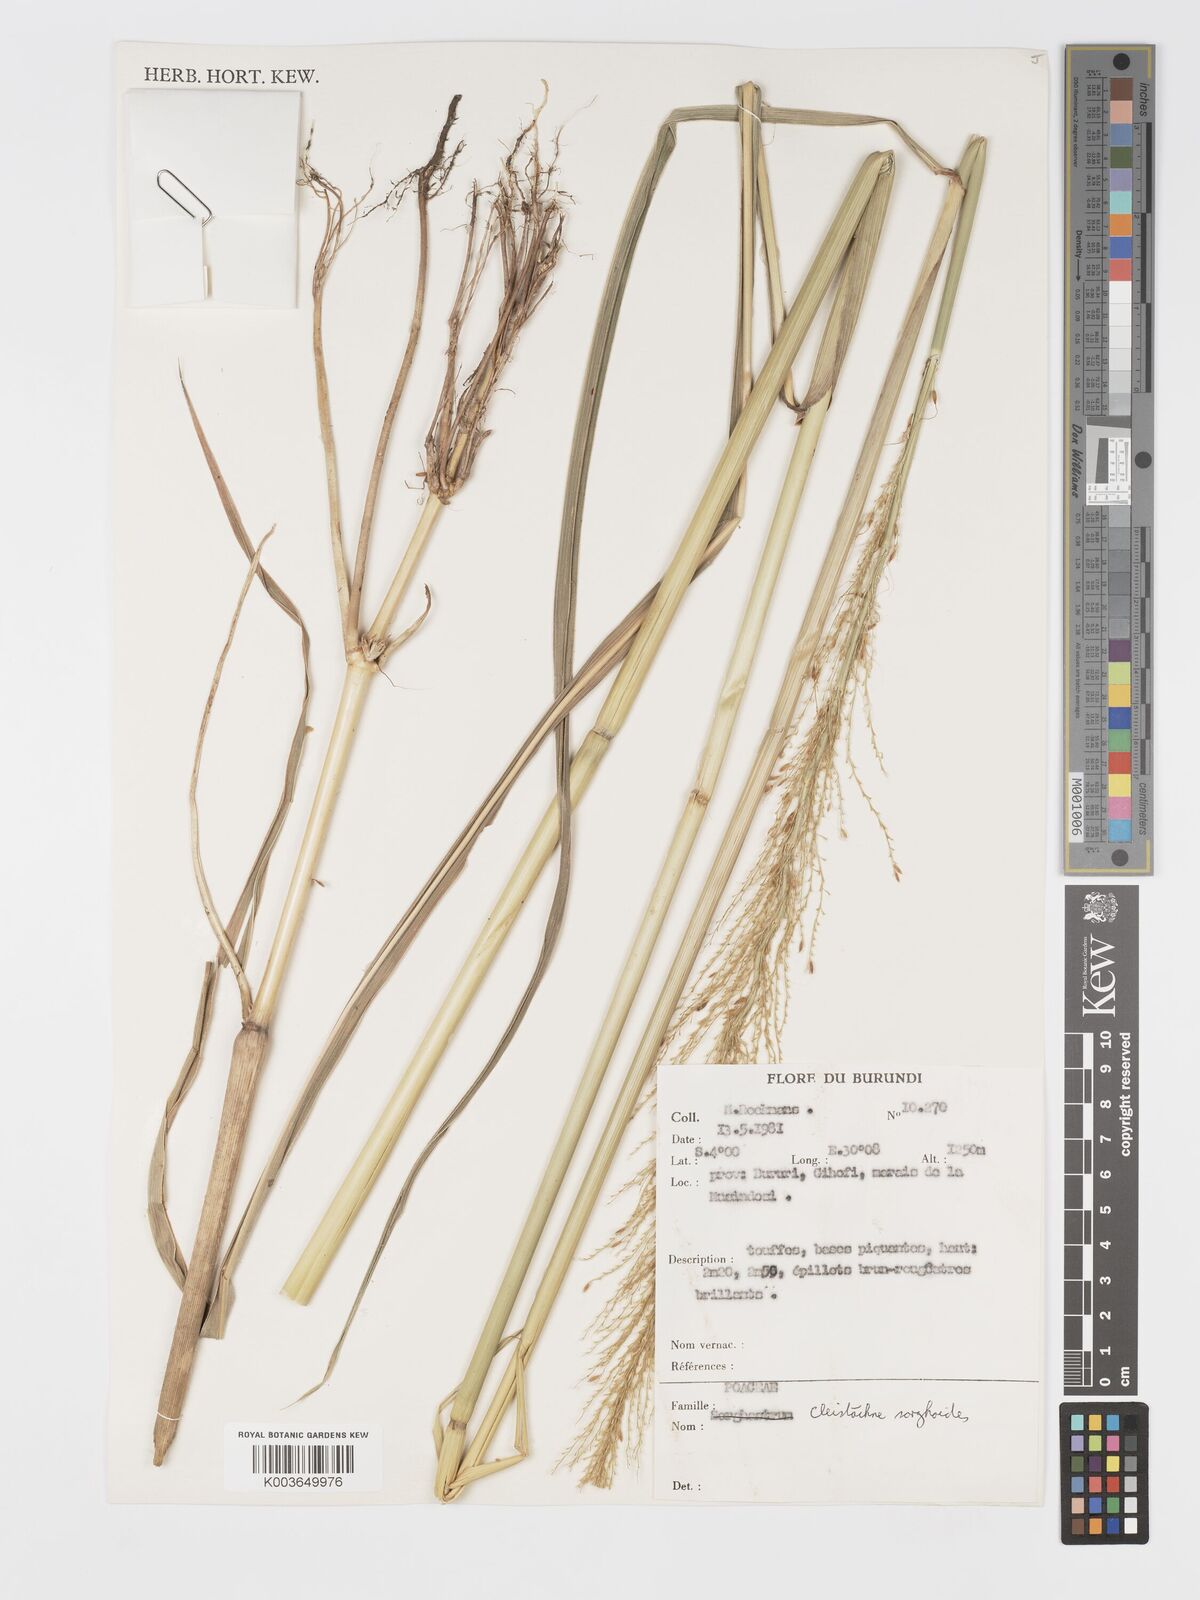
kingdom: Plantae
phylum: Tracheophyta
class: Liliopsida
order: Poales
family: Poaceae
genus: Cleistachne
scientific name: Cleistachne sorghoides
